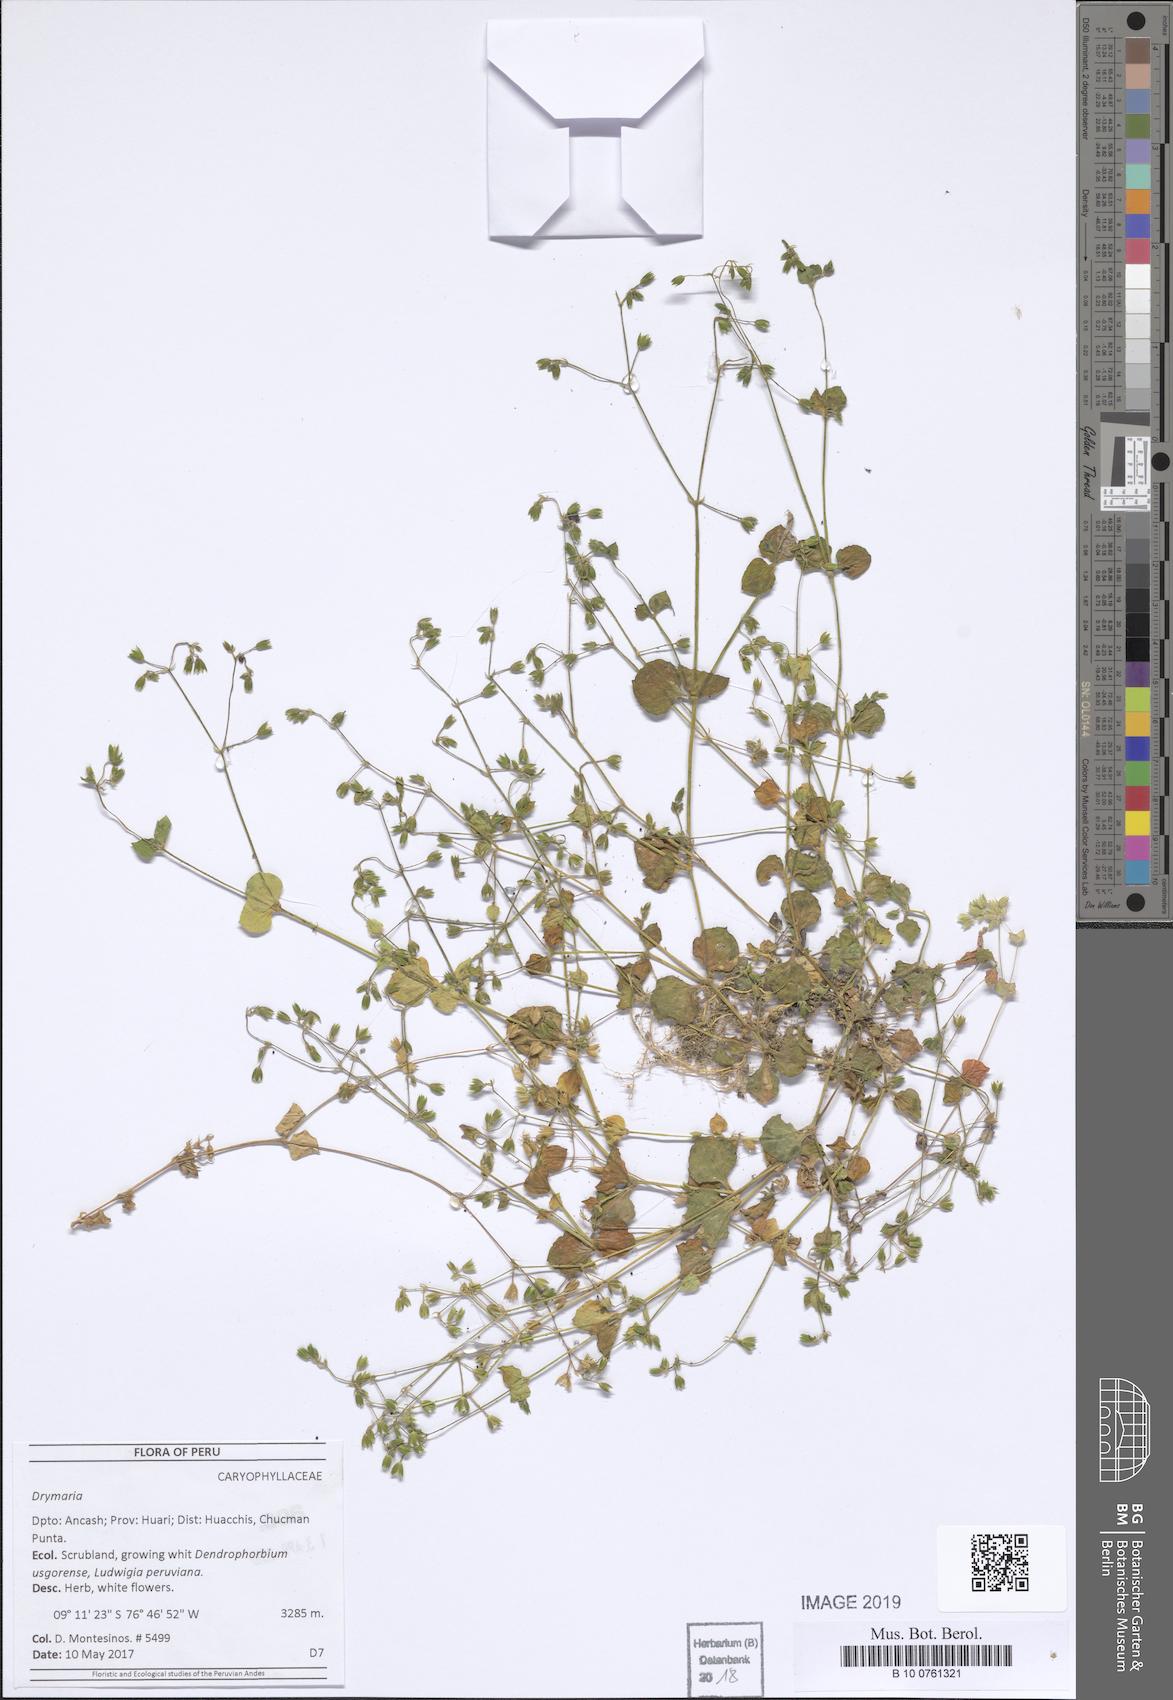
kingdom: Plantae
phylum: Tracheophyta
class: Magnoliopsida
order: Caryophyllales
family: Caryophyllaceae
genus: Drymaria
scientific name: Drymaria
